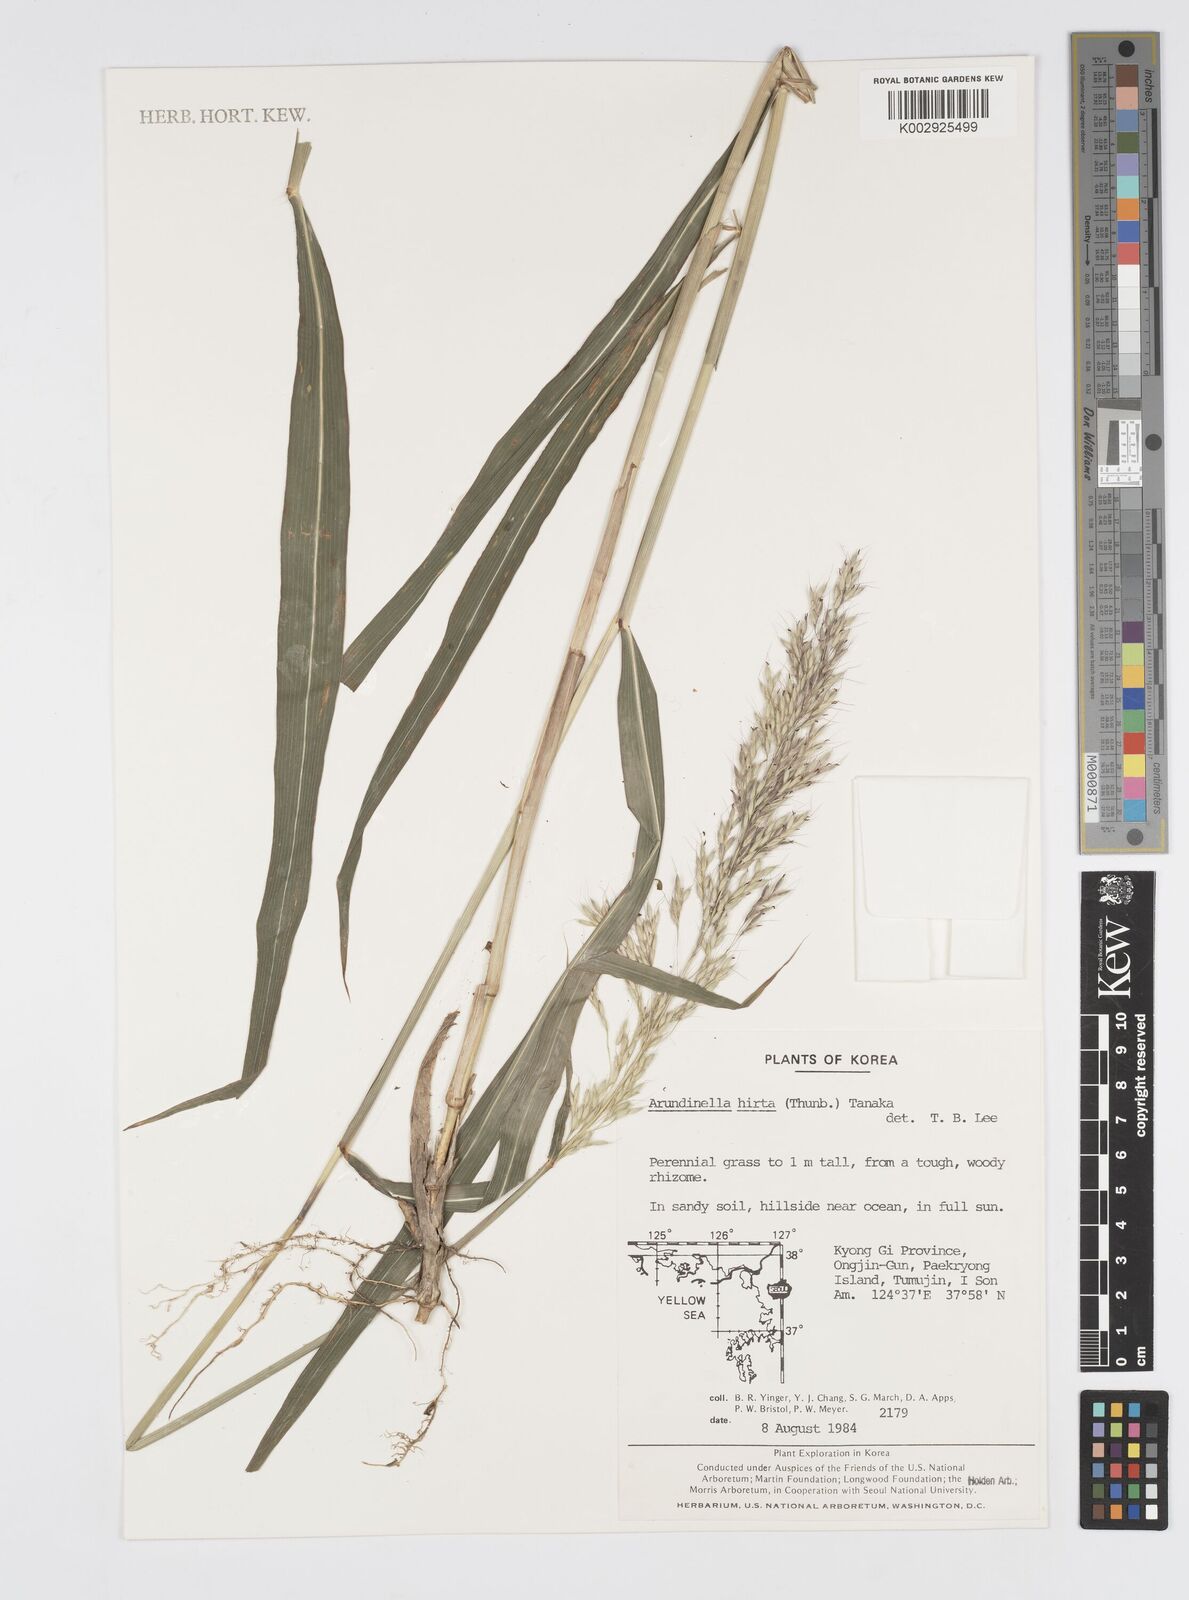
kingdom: Plantae
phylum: Tracheophyta
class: Liliopsida
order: Poales
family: Poaceae
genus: Spodiopogon
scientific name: Spodiopogon sibiricus
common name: Siberian graybeard
